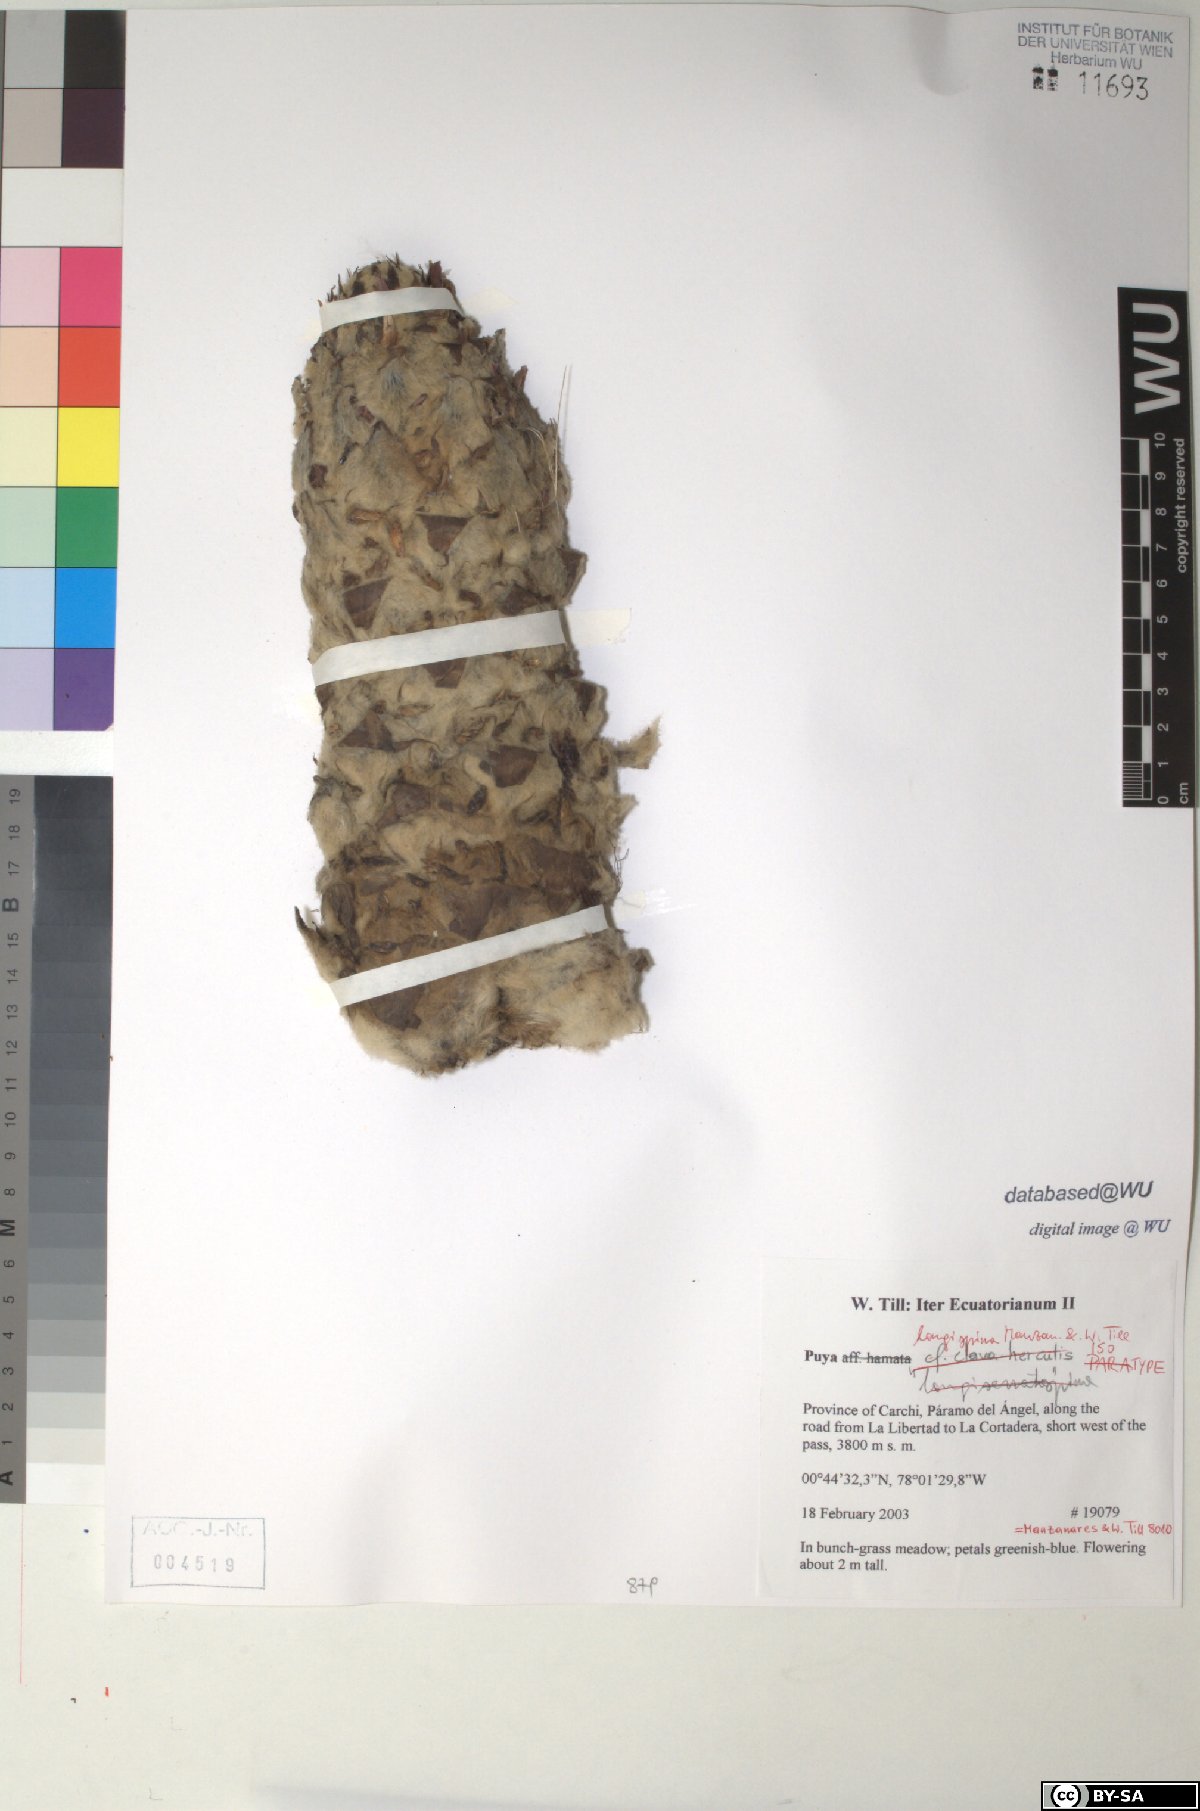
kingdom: Plantae
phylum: Tracheophyta
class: Liliopsida
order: Poales
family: Bromeliaceae
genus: Puya
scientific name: Puya longispina
